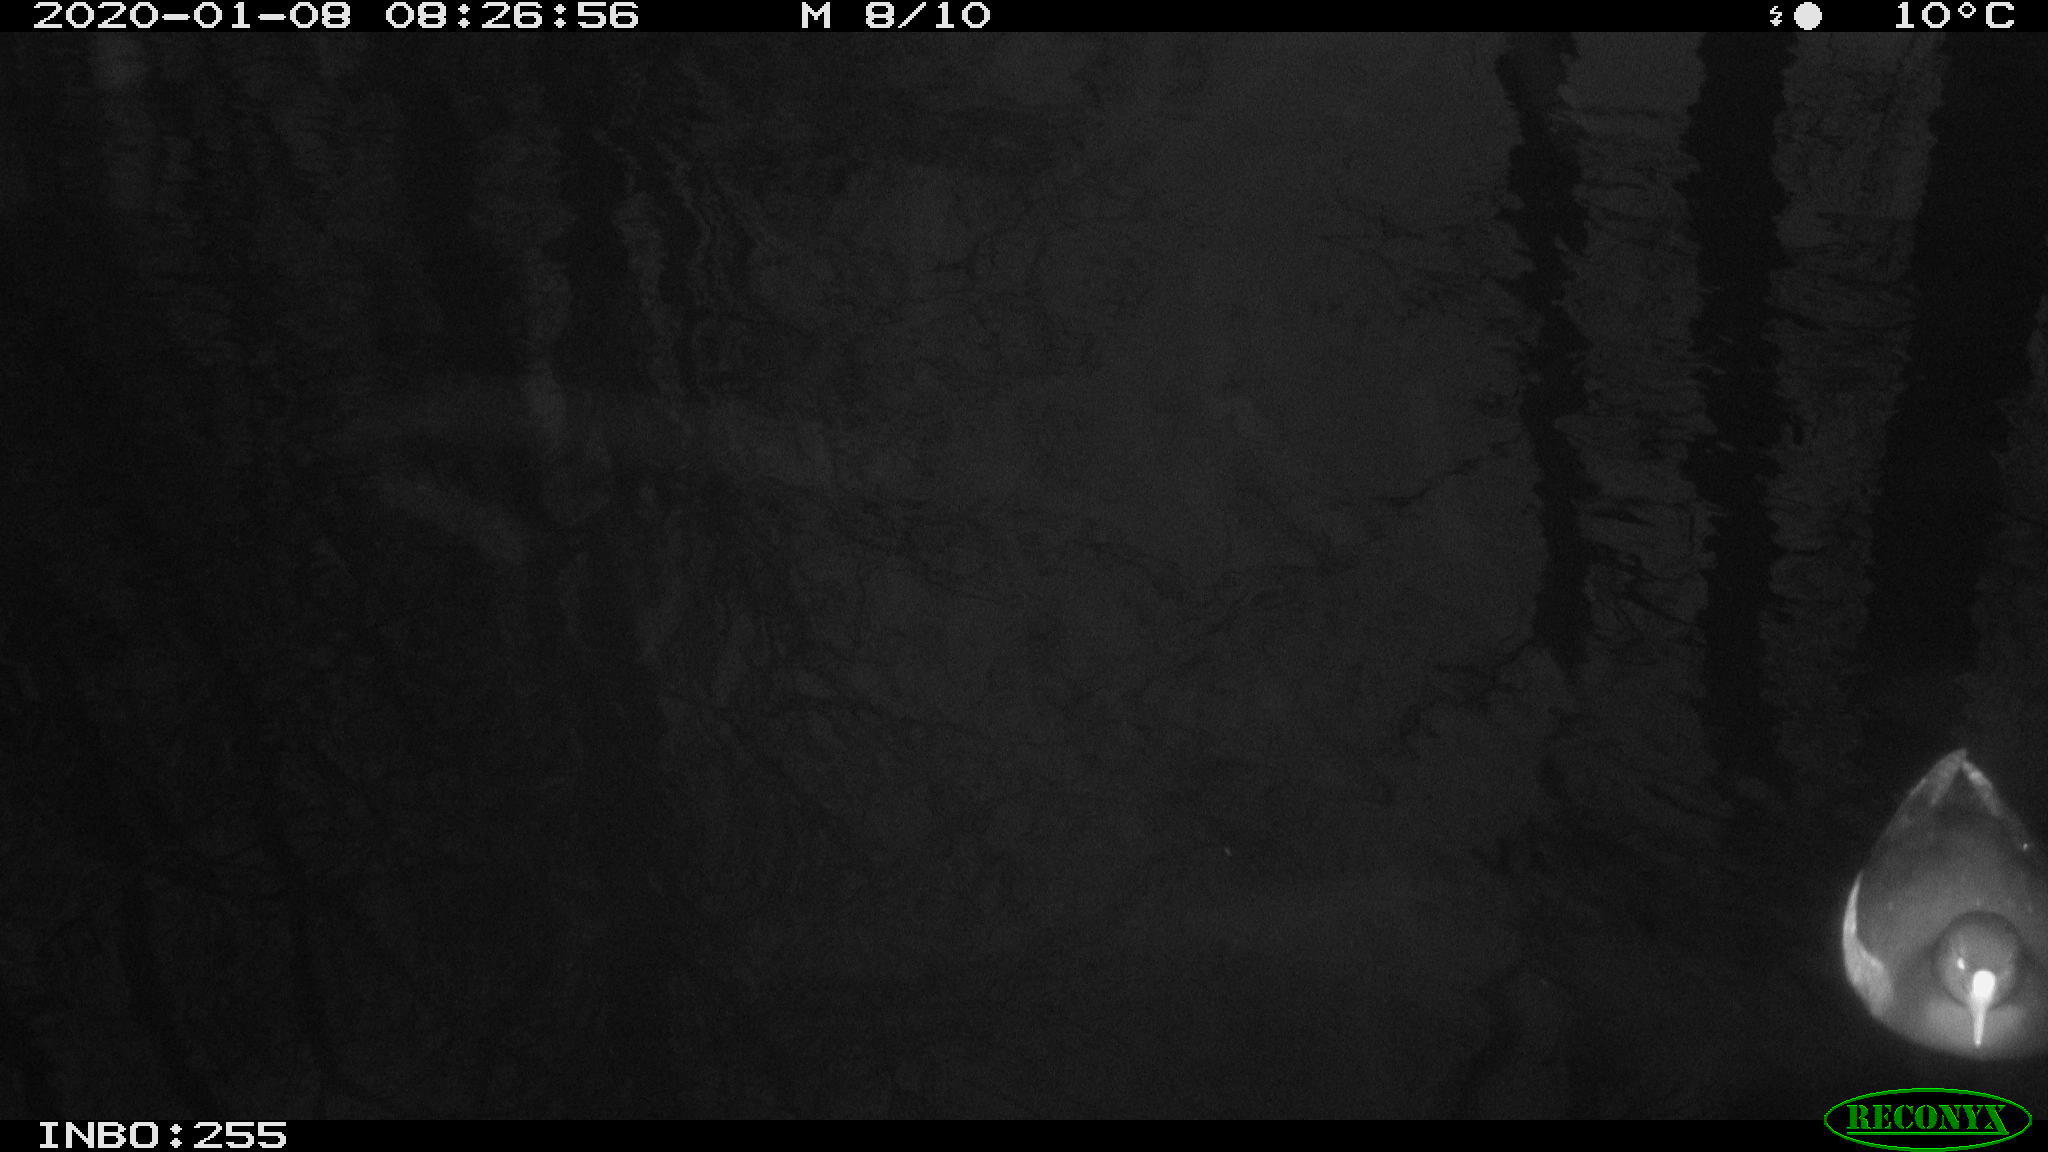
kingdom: Animalia
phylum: Chordata
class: Aves
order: Gruiformes
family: Rallidae
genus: Gallinula
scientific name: Gallinula chloropus
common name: Common moorhen
